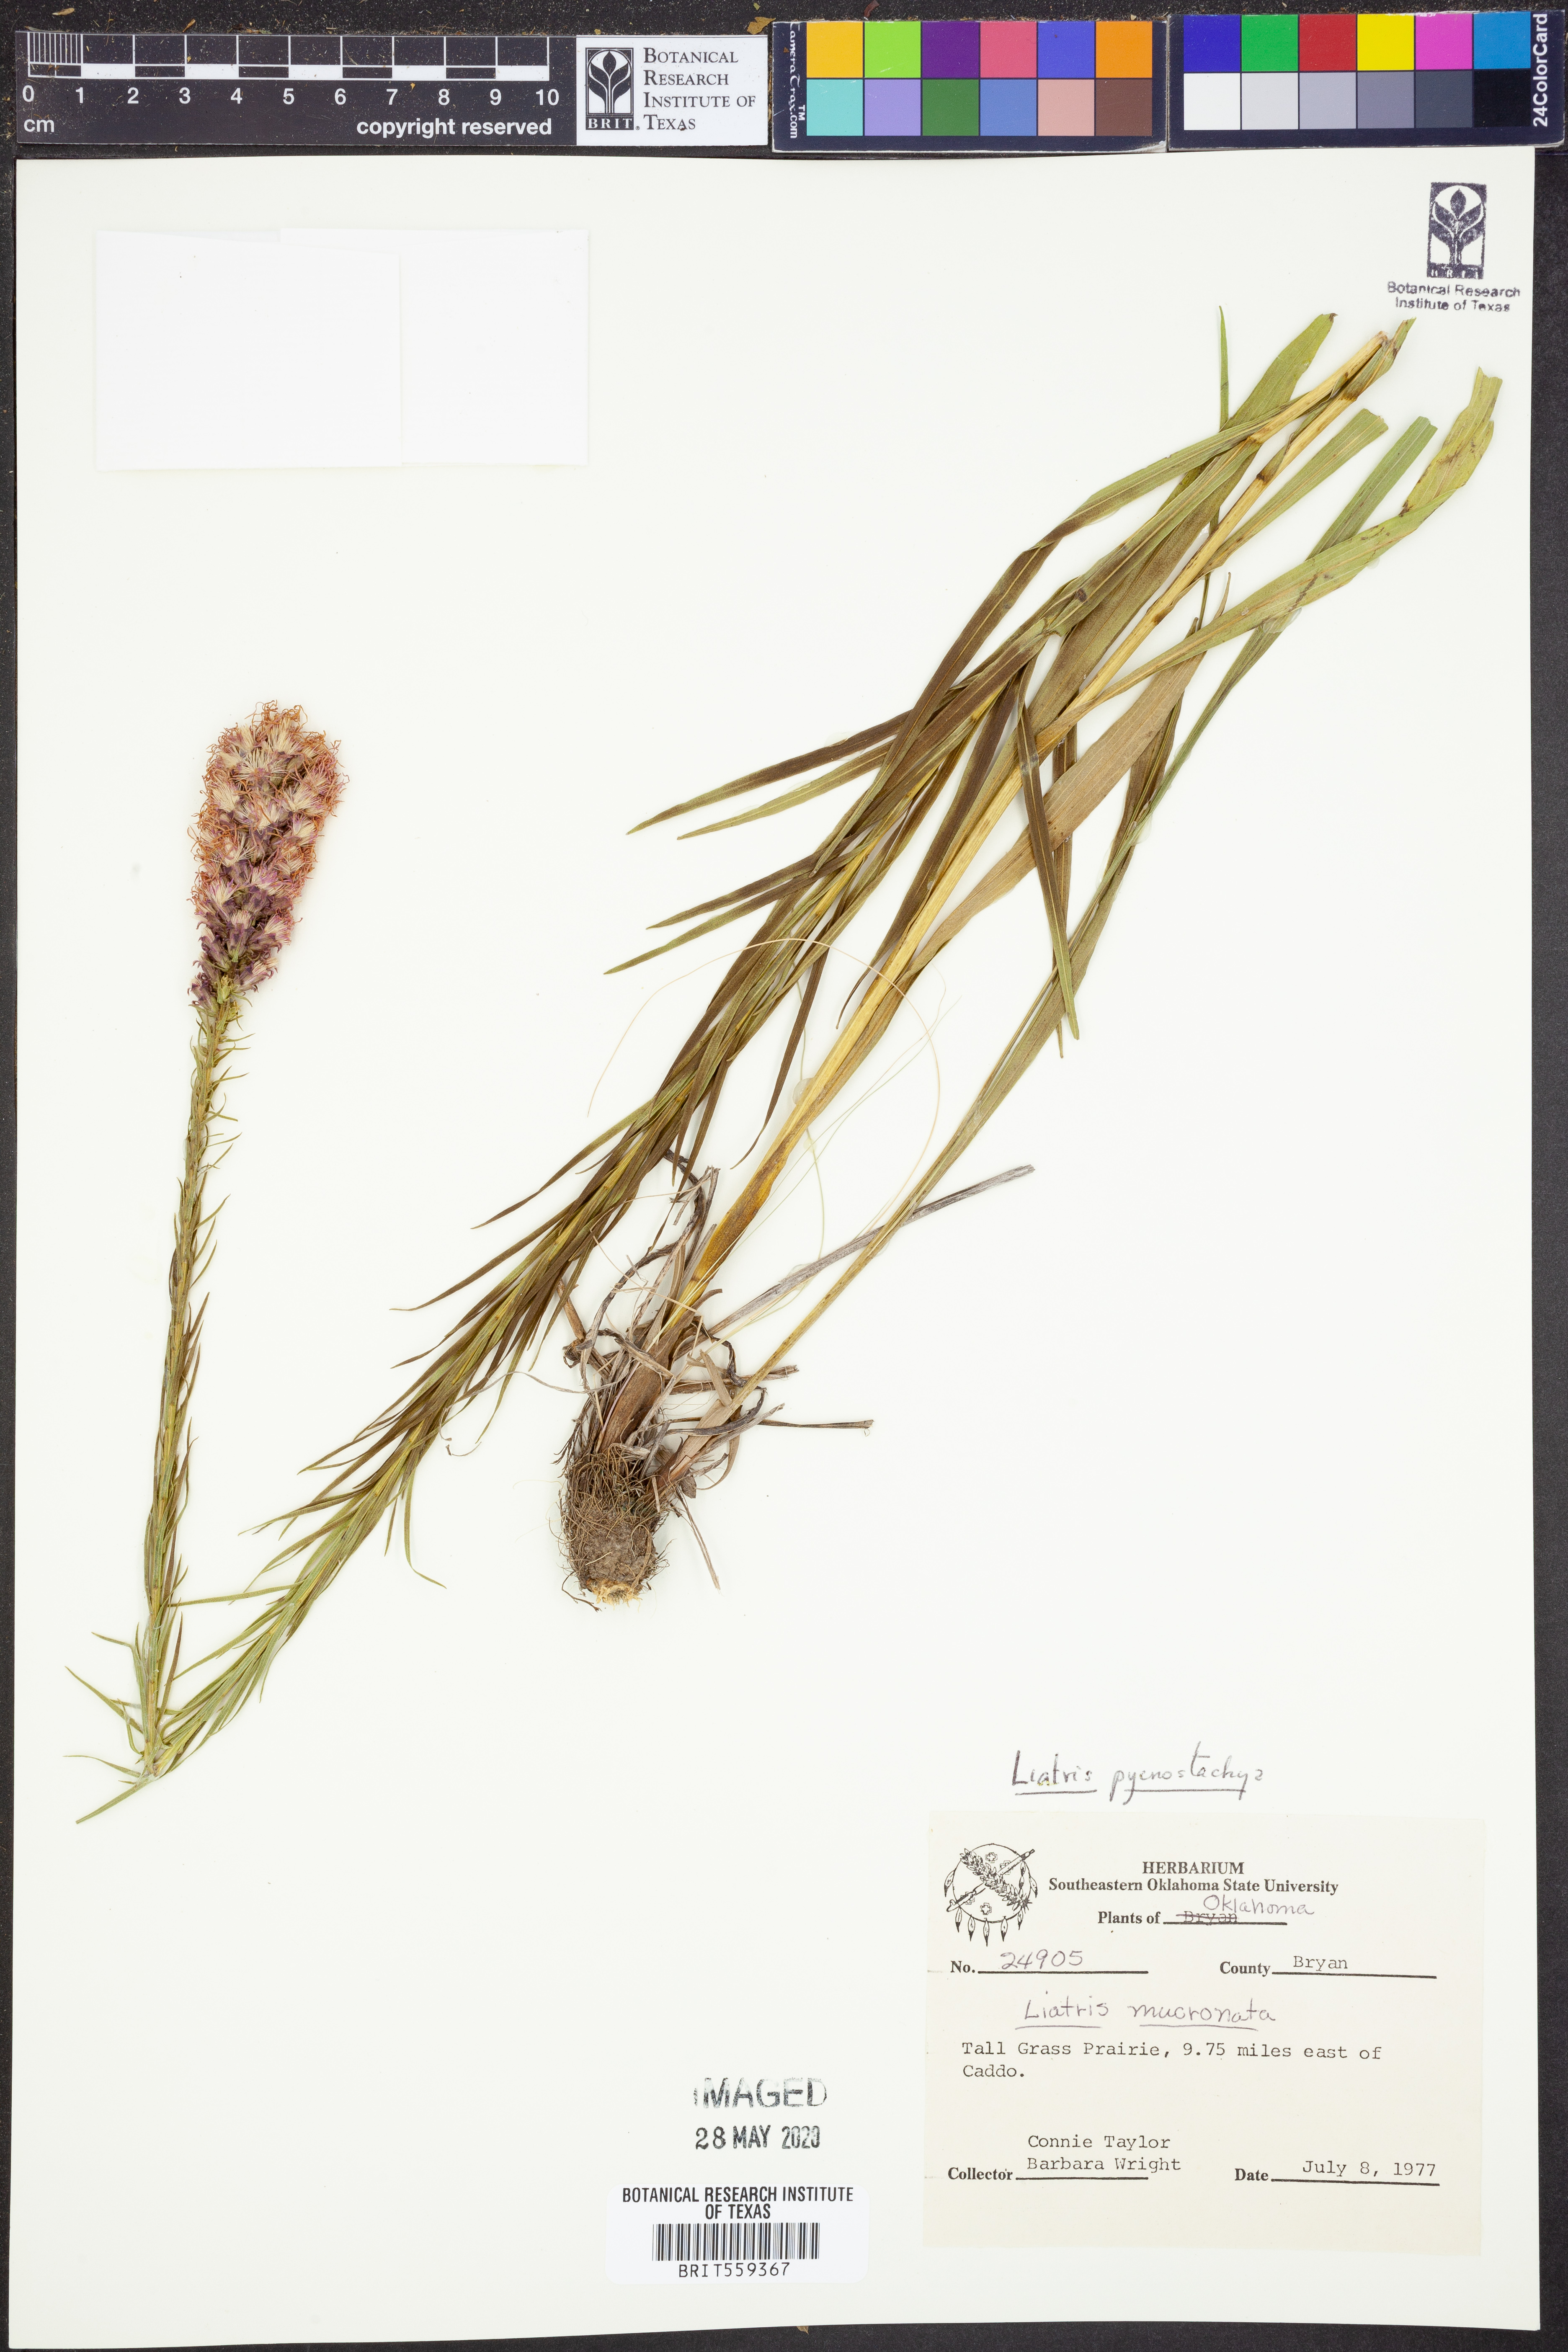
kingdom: Plantae
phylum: Tracheophyta
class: Magnoliopsida
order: Asterales
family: Asteraceae
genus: Liatris
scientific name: Liatris pycnostachya
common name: Cattail gayfeather
